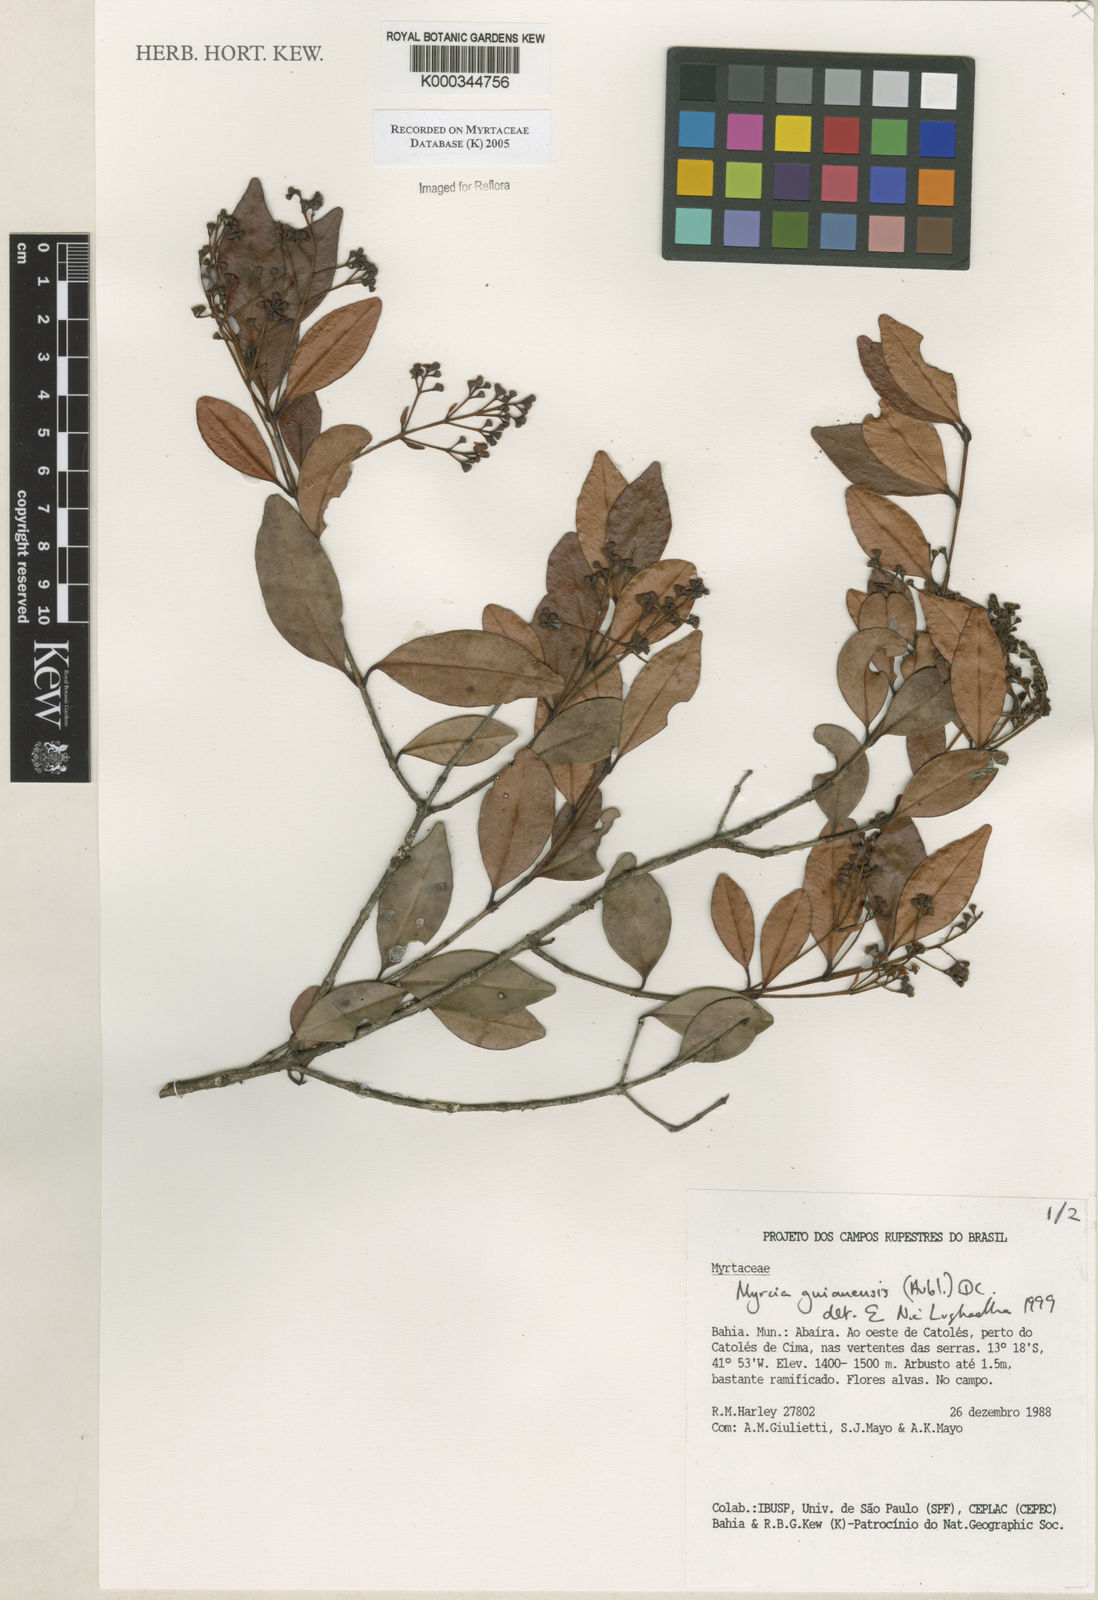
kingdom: Plantae
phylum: Tracheophyta
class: Magnoliopsida
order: Myrtales
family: Myrtaceae
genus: Myrcia
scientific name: Myrcia guianensis
